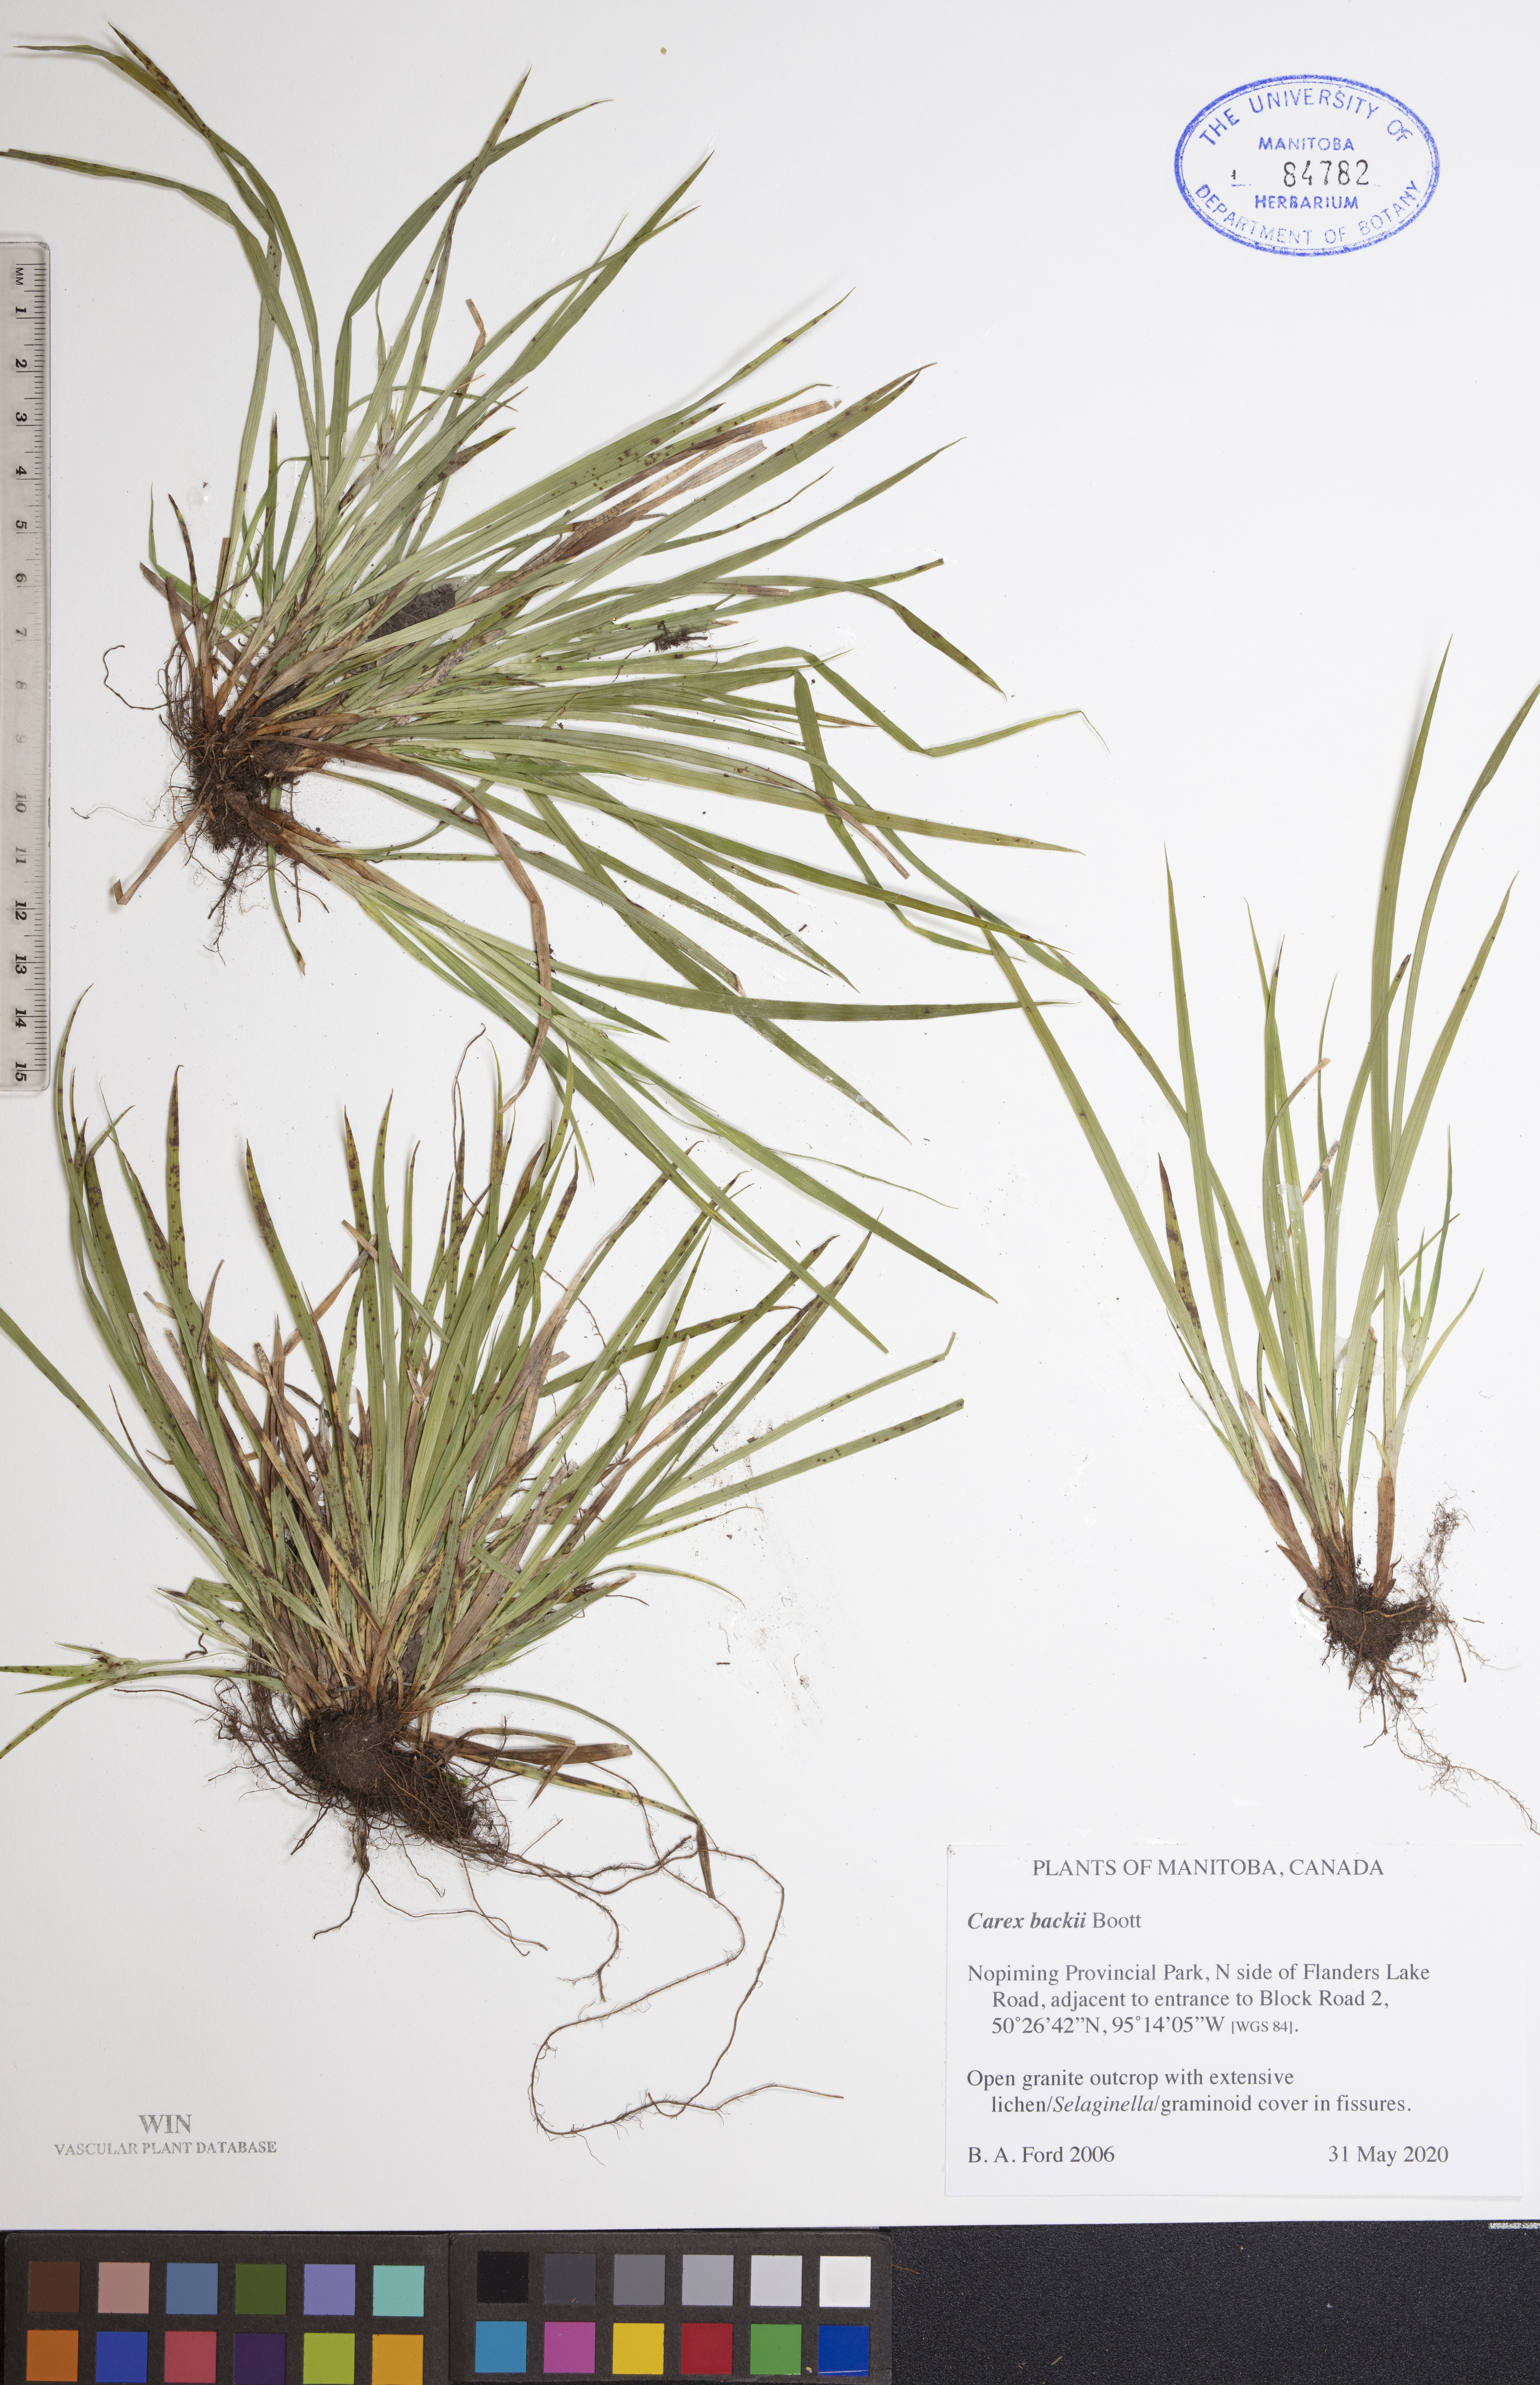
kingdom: Plantae
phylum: Tracheophyta
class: Liliopsida
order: Poales
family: Cyperaceae
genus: Carex
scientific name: Carex backii
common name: Back's sedge
